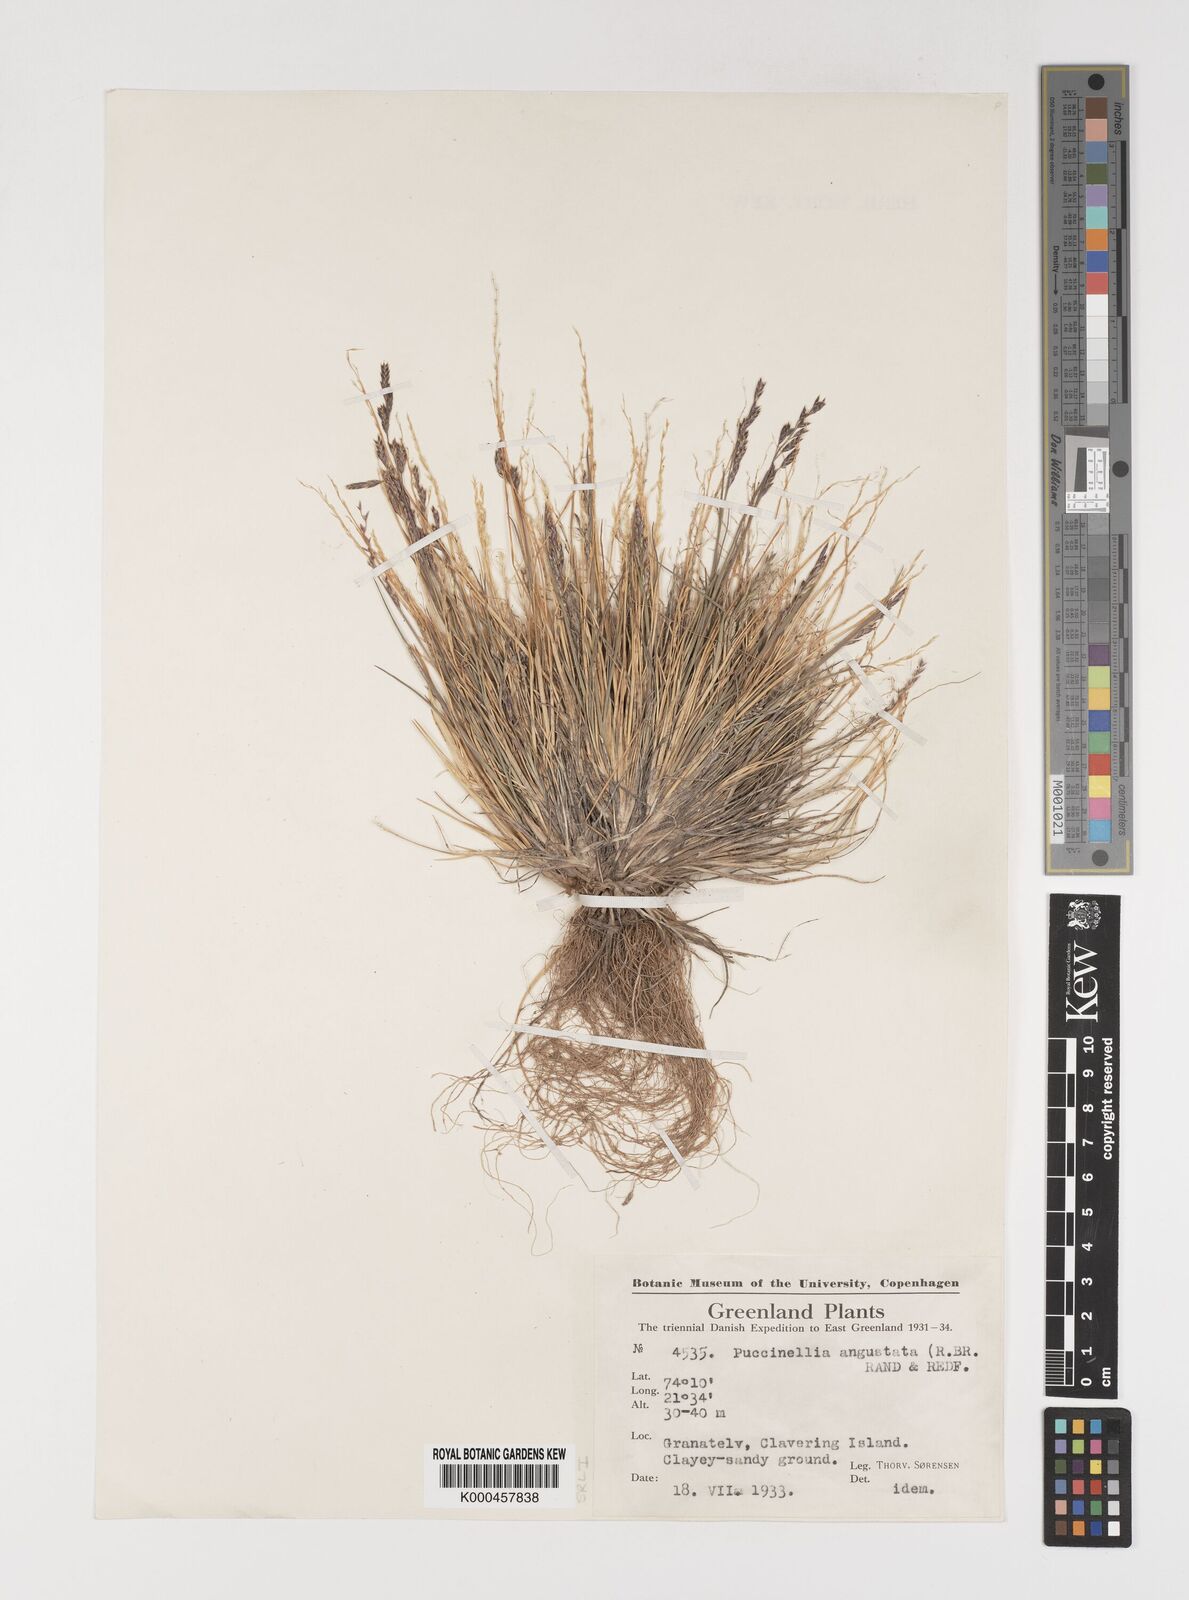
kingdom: Plantae
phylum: Tracheophyta
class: Liliopsida
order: Poales
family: Poaceae
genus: Puccinellia
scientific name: Puccinellia angustata
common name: Narrow alkaligrass
